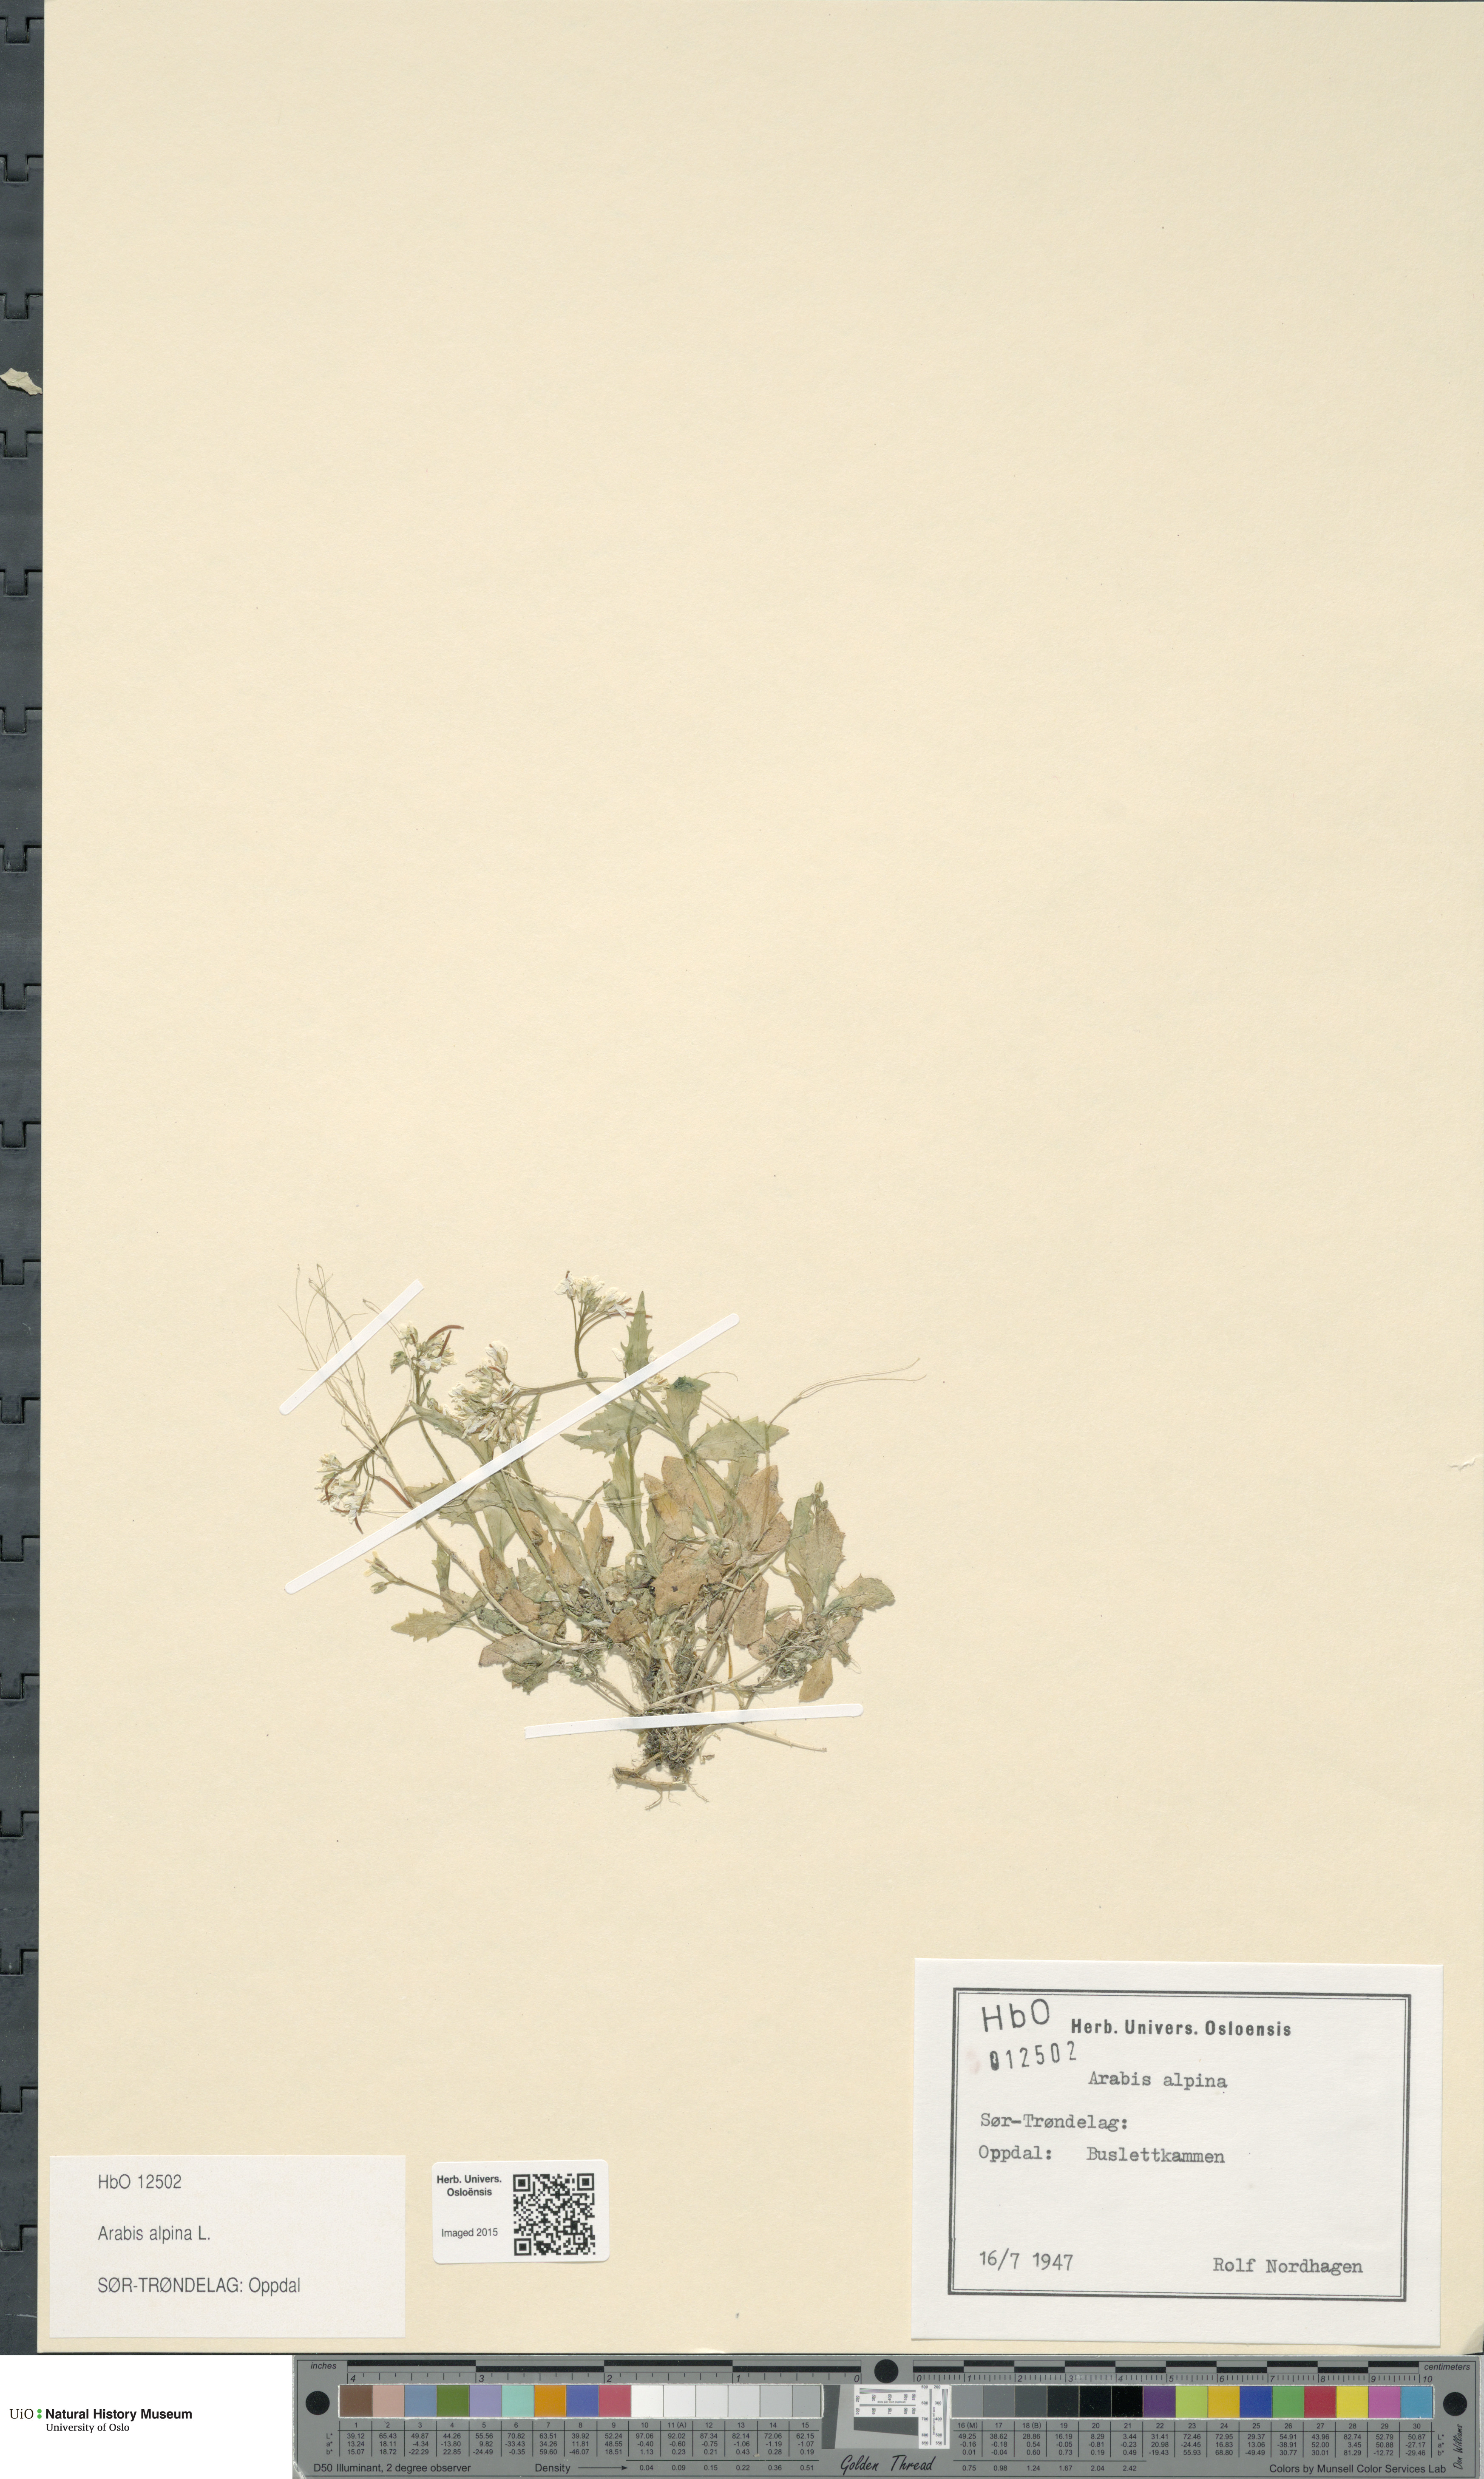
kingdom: Plantae
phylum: Tracheophyta
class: Magnoliopsida
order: Brassicales
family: Brassicaceae
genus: Arabis
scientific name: Arabis alpina
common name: Alpine rock-cress
